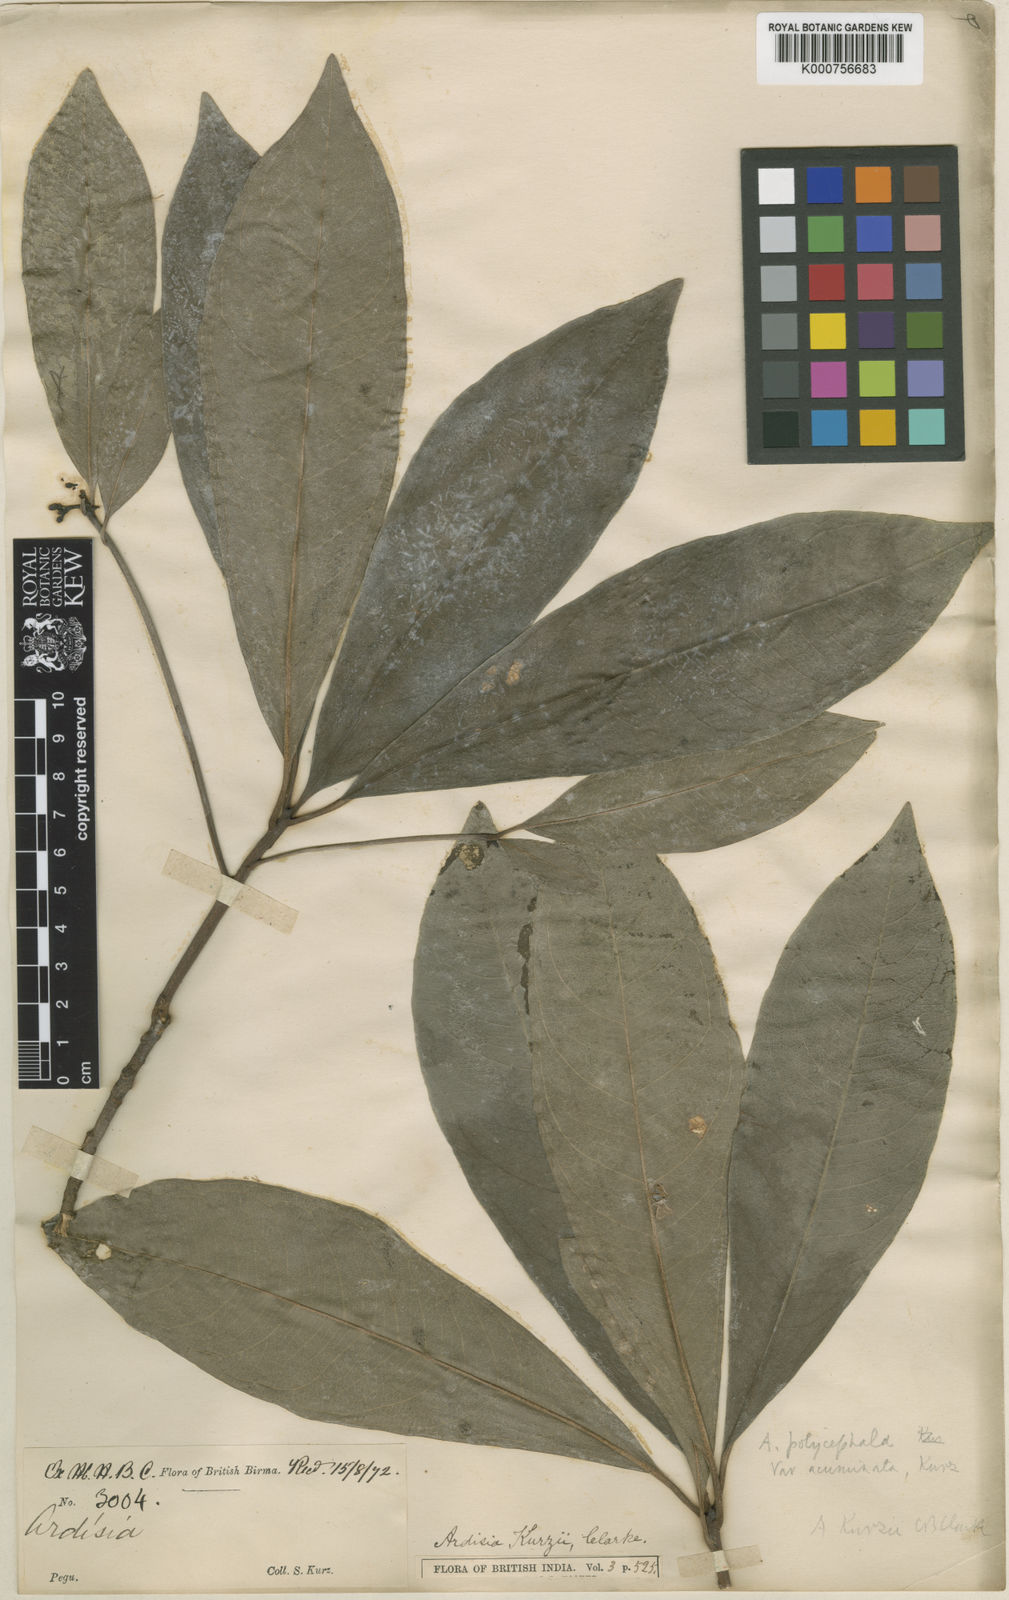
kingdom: Plantae
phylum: Tracheophyta
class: Magnoliopsida
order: Ericales
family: Primulaceae
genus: Ardisia
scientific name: Ardisia kurzii
